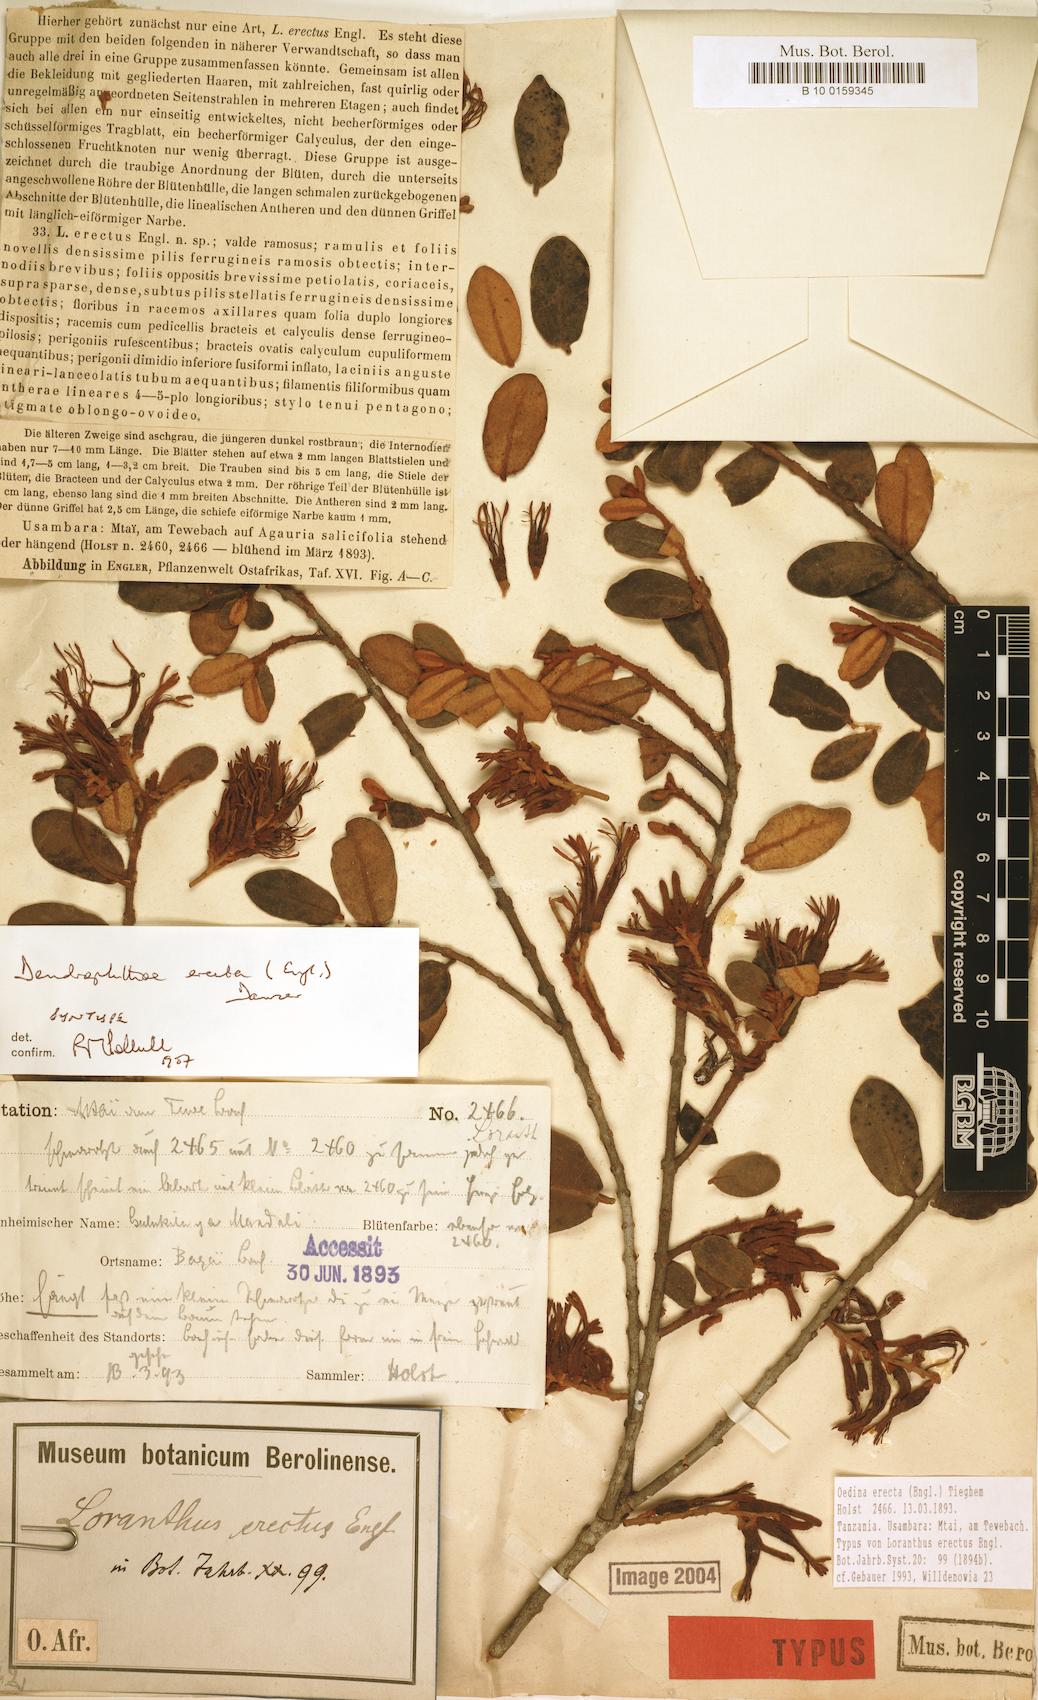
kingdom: Plantae
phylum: Tracheophyta
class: Magnoliopsida
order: Santalales
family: Loranthaceae
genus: Oedina
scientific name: Oedina erecta
